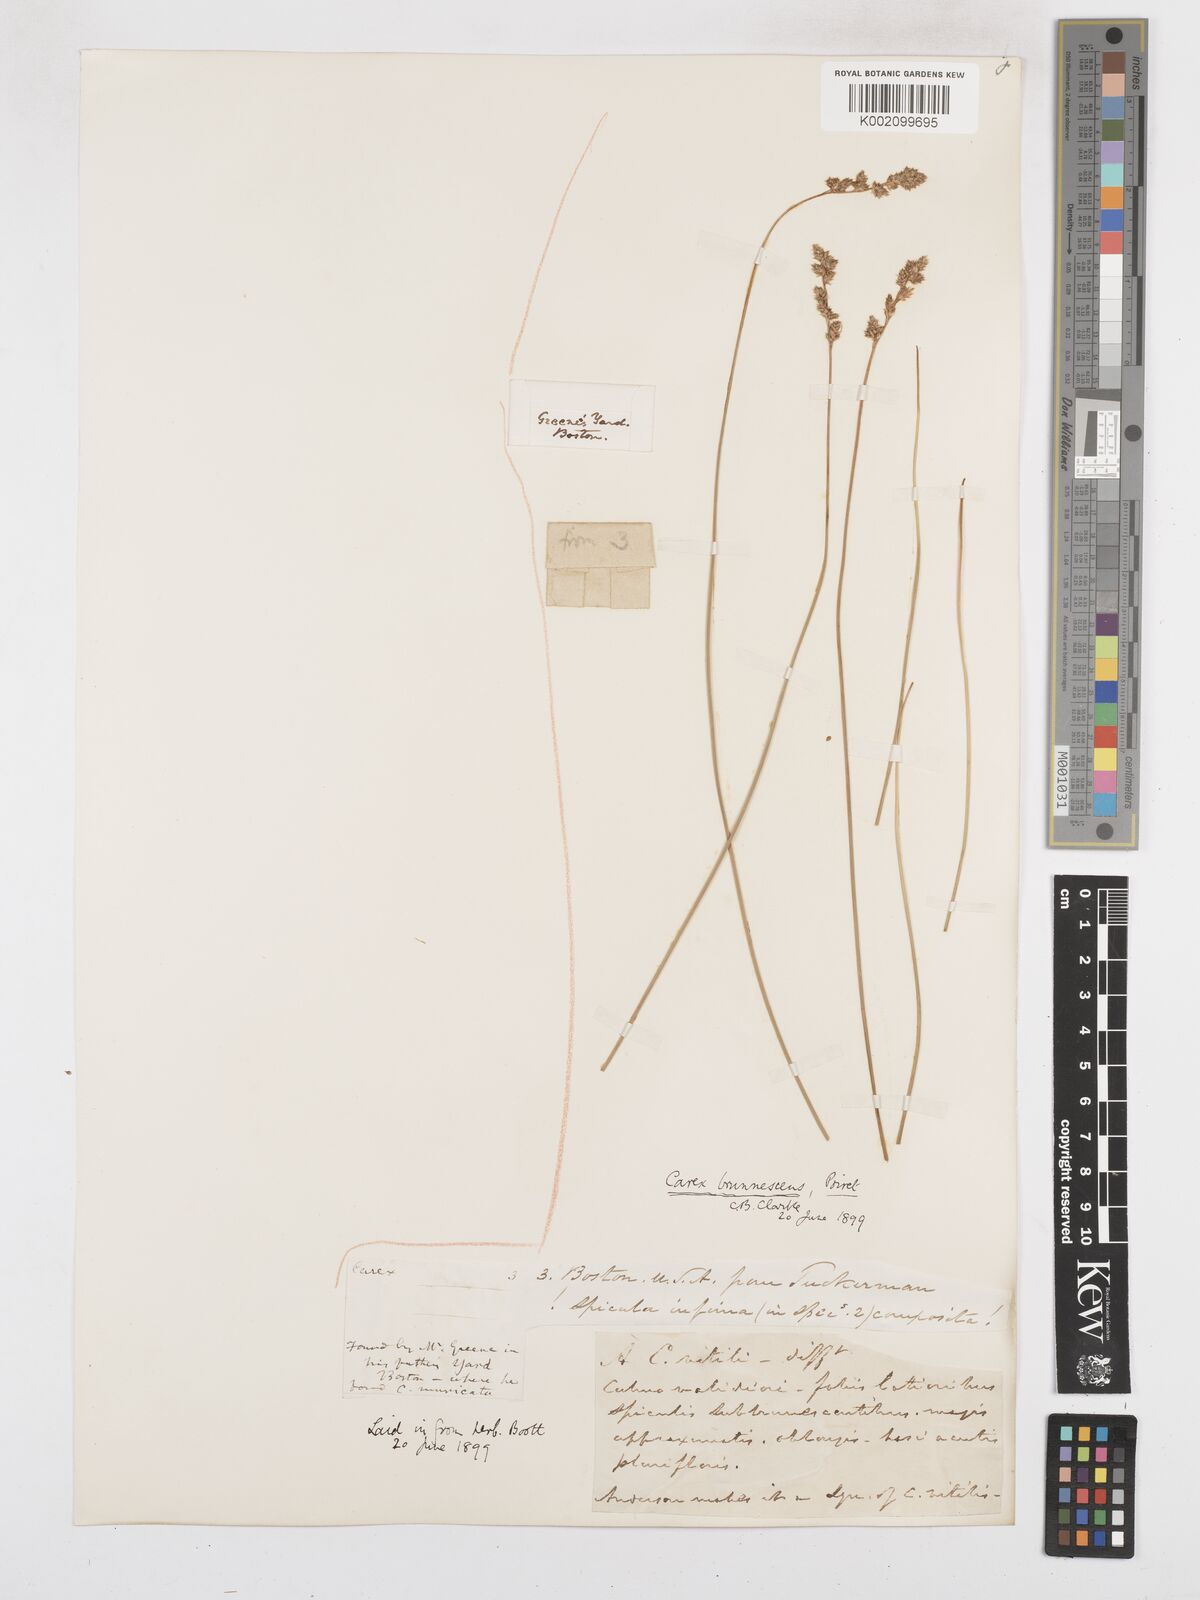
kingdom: Plantae
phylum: Tracheophyta
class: Liliopsida
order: Poales
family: Cyperaceae
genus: Carex
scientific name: Carex brunnescens
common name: Brown sedge
